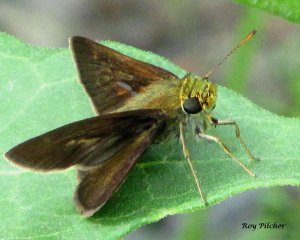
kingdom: Animalia
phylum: Arthropoda
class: Insecta
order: Lepidoptera
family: Hesperiidae
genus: Euphyes
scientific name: Euphyes vestris
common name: Dun Skipper
